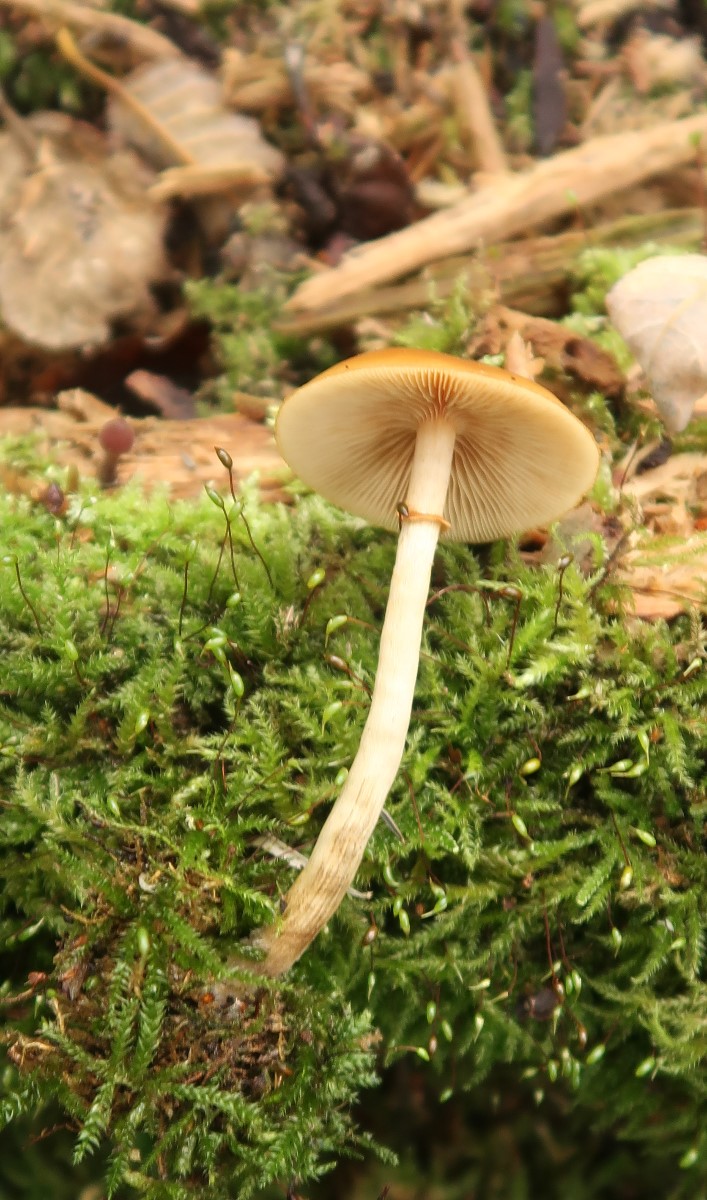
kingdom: Fungi
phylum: Basidiomycota
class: Agaricomycetes
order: Agaricales
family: Hymenogastraceae
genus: Galerina
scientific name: Galerina marginata
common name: randbæltet hjelmhat
